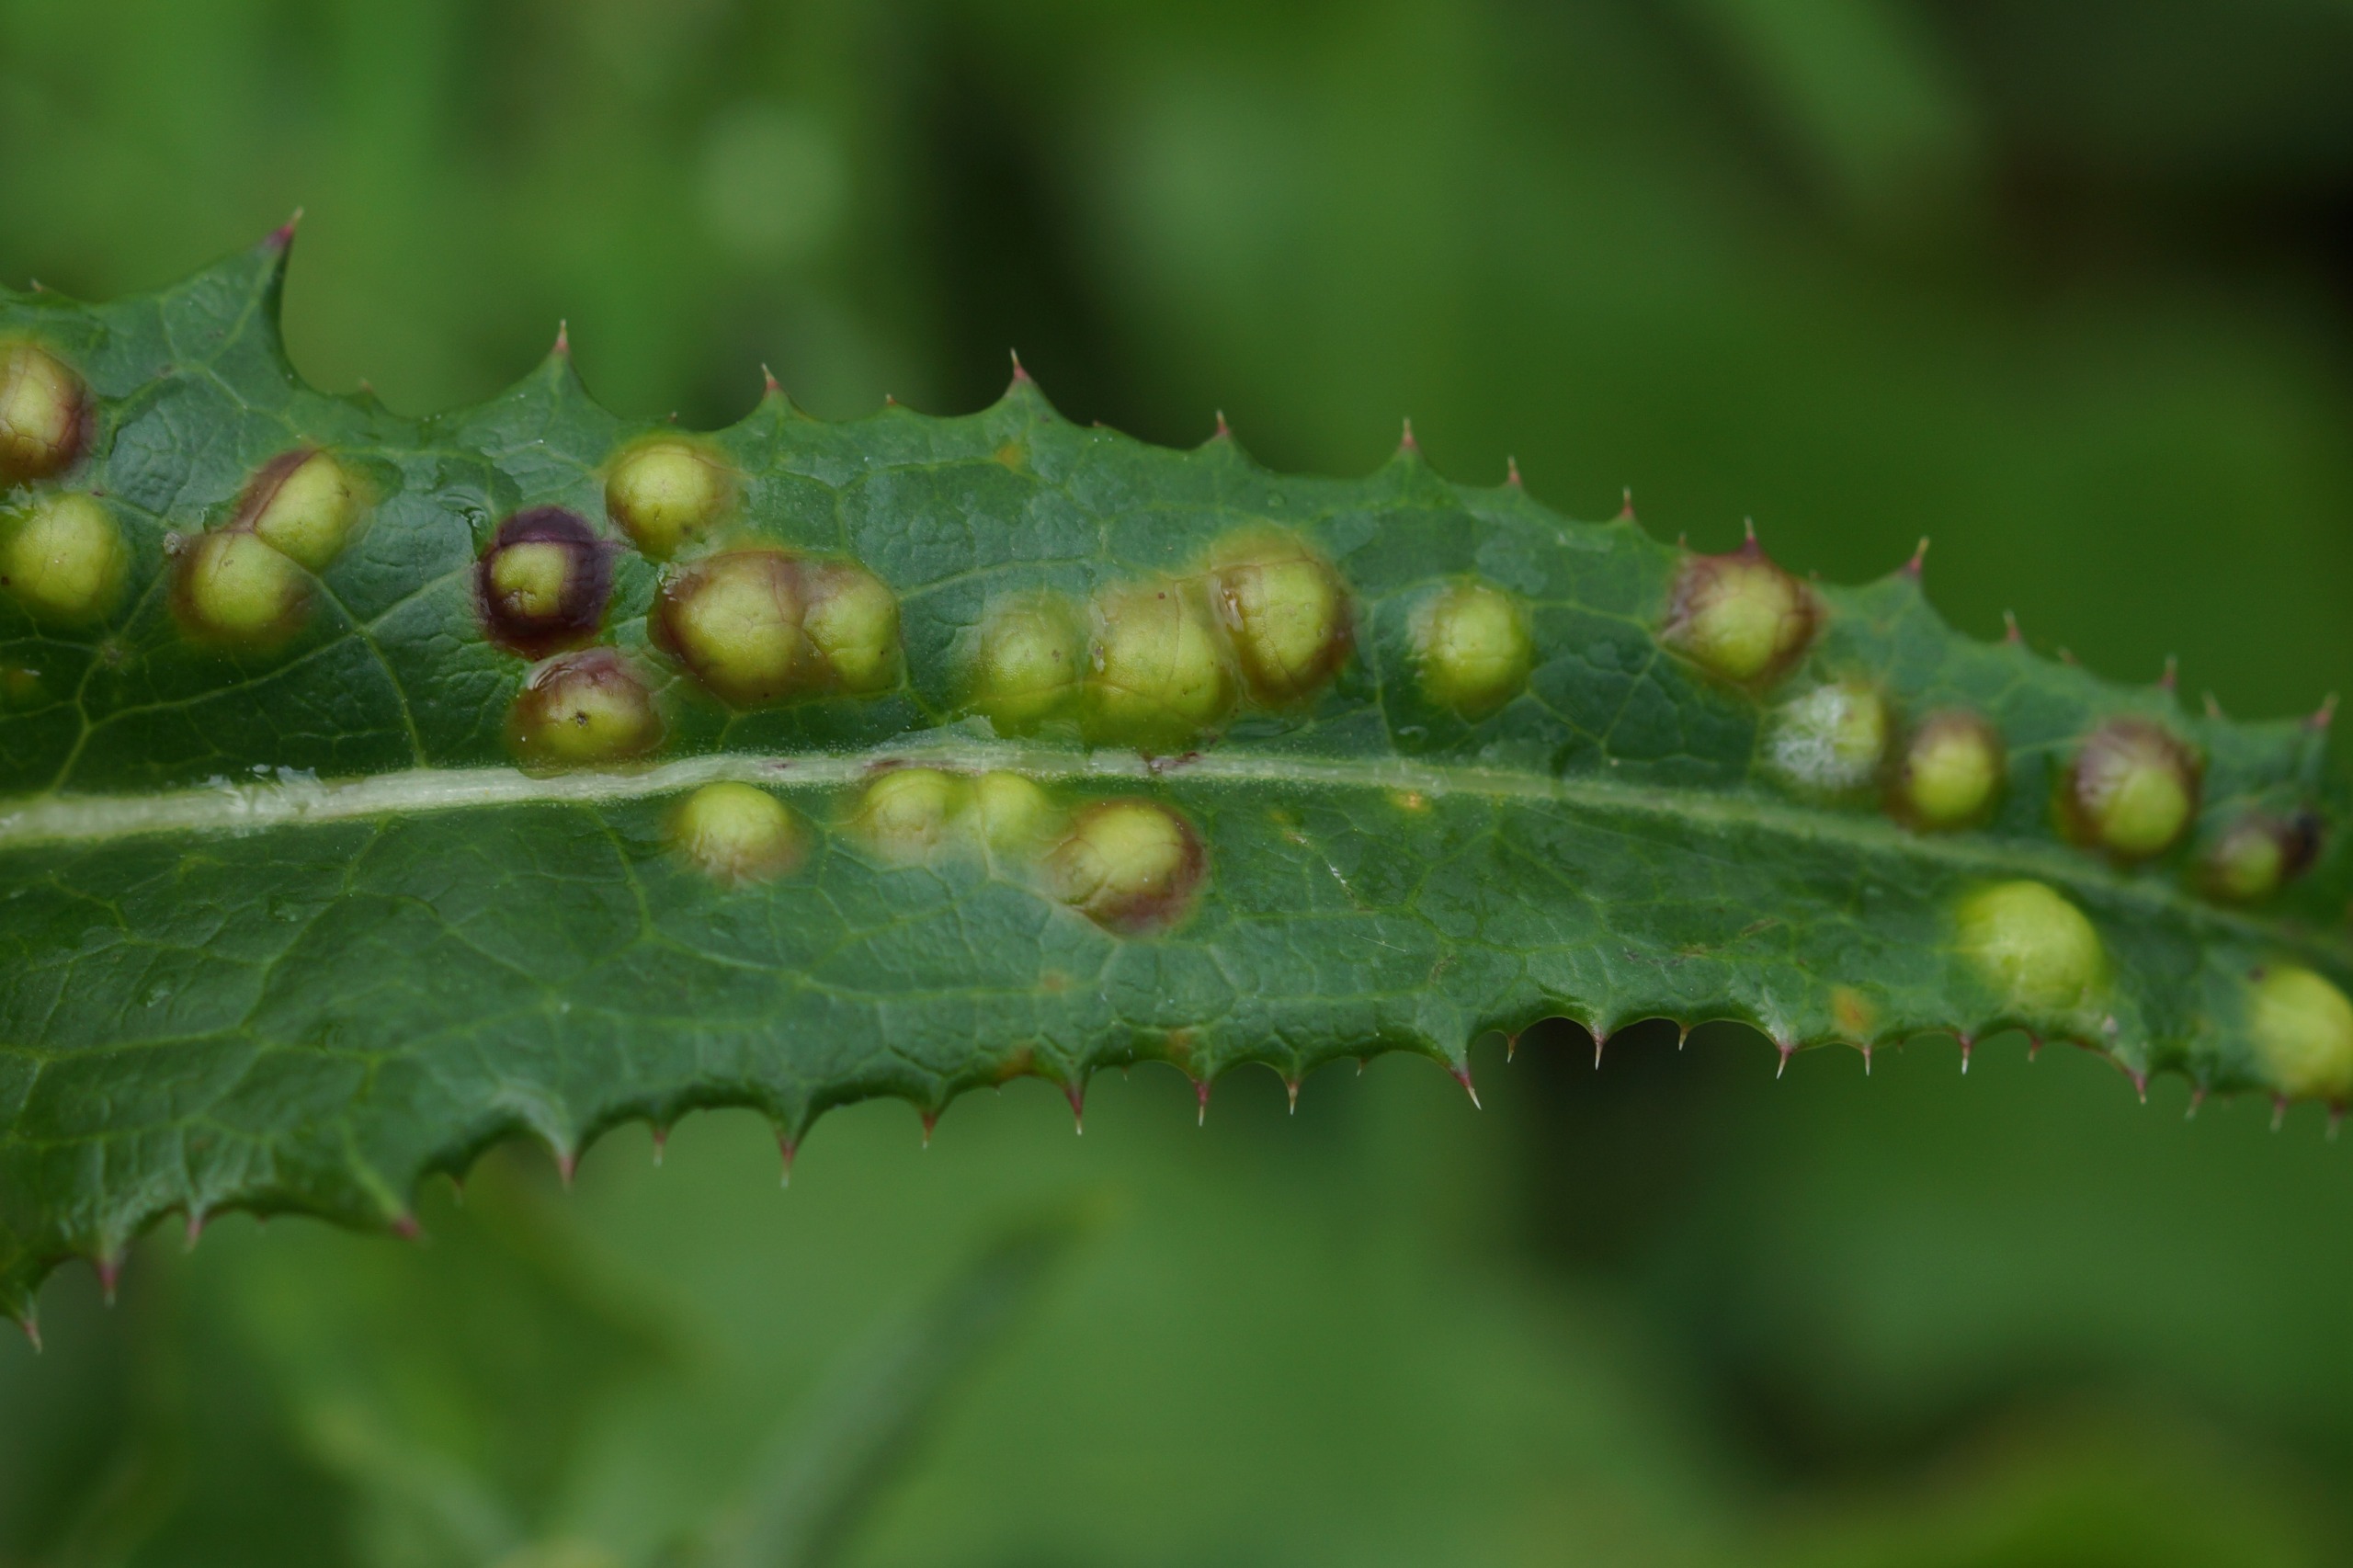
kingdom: Animalia
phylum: Arthropoda
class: Insecta
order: Diptera
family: Cecidomyiidae
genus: Cystiphora
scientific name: Cystiphora sonchi
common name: Svineblæregalmyg
